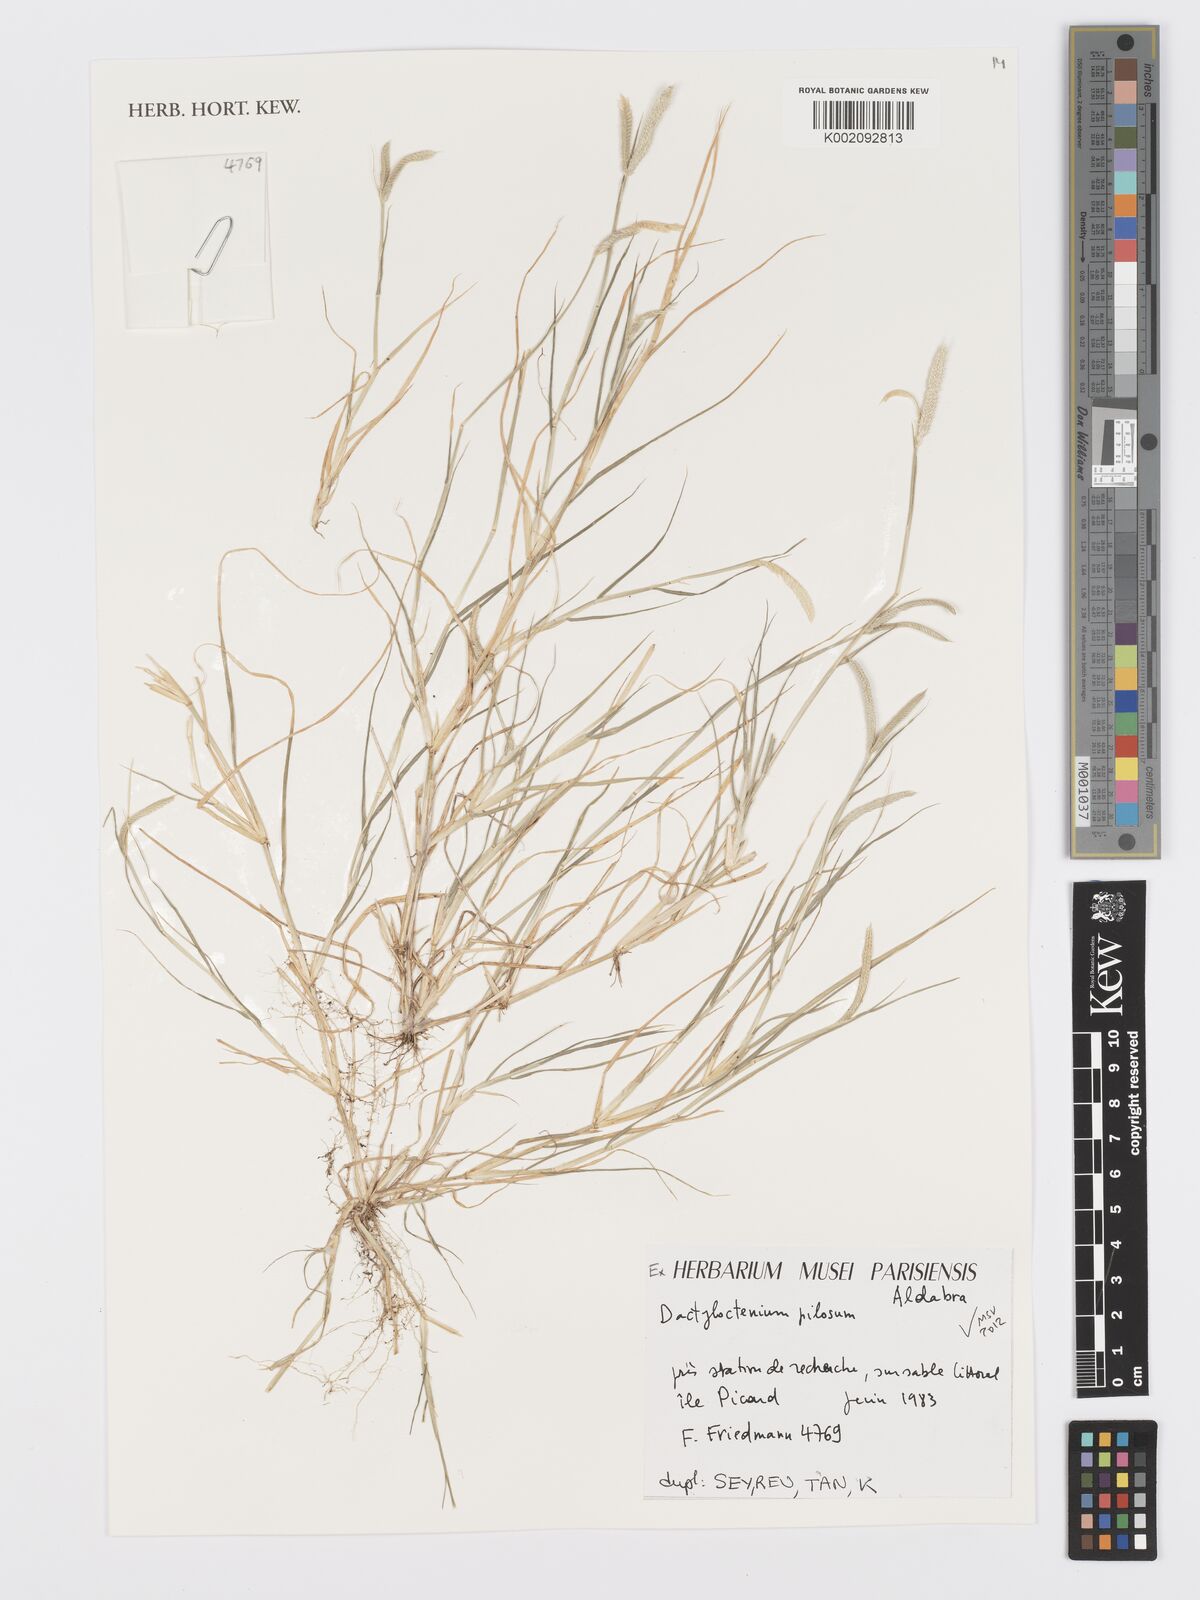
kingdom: Plantae
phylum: Tracheophyta
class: Liliopsida
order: Poales
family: Poaceae
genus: Dactyloctenium
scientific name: Dactyloctenium pilosum
